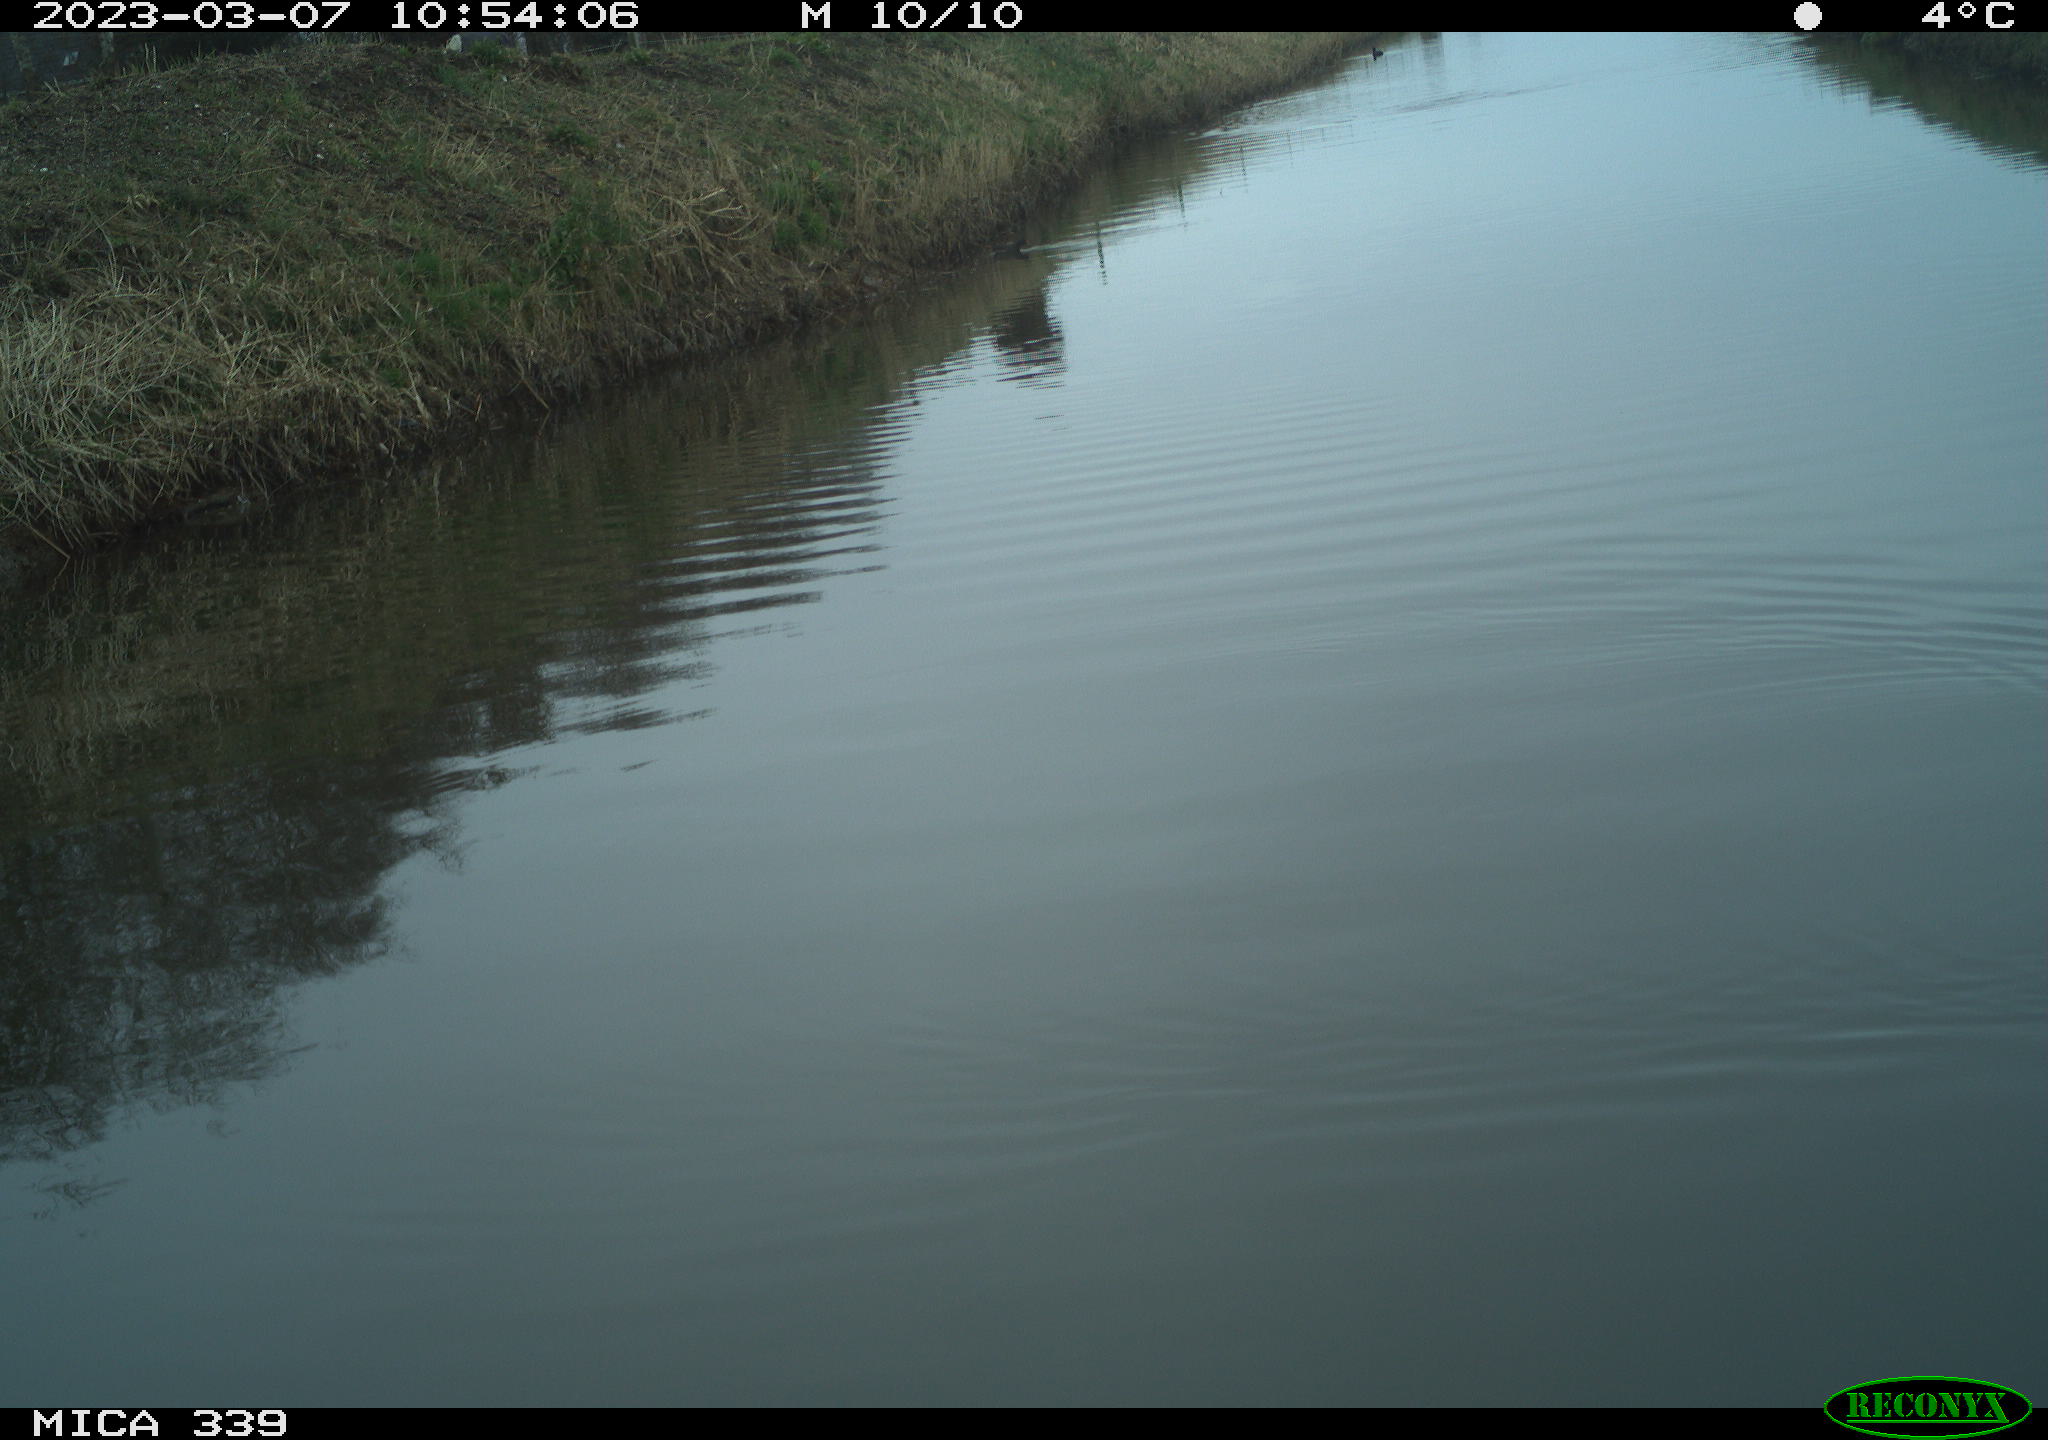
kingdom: Animalia
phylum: Chordata
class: Aves
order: Gruiformes
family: Rallidae
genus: Gallinula
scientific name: Gallinula chloropus
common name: Common moorhen
